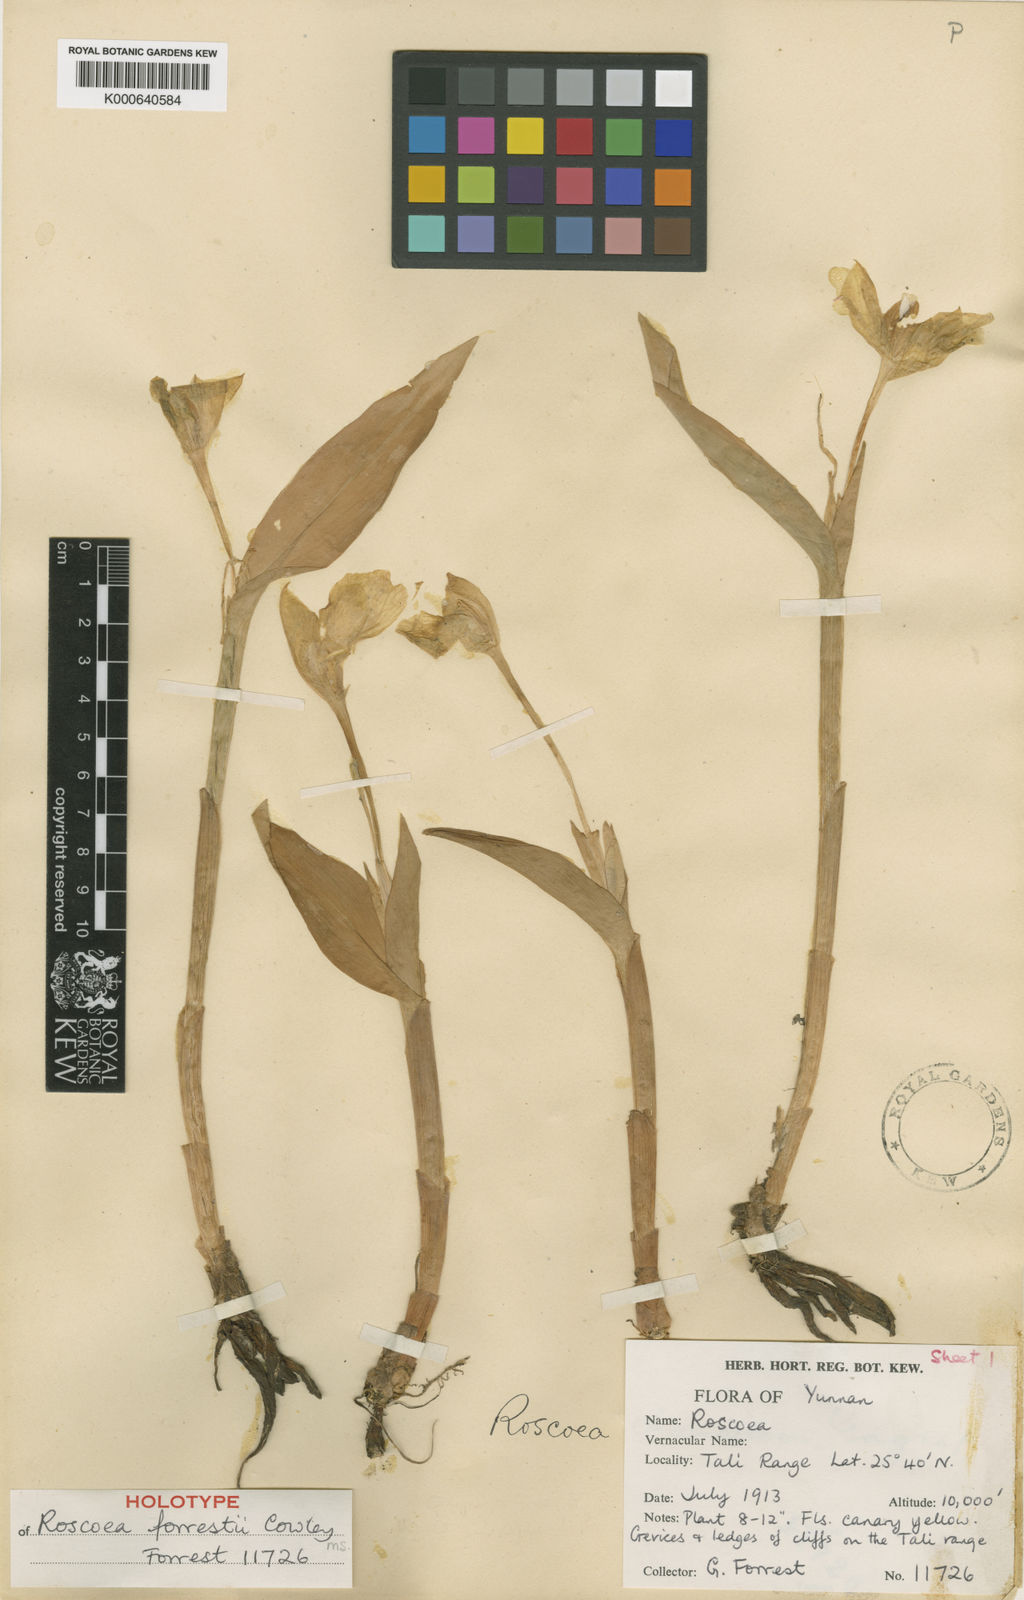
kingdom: Plantae
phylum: Tracheophyta
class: Liliopsida
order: Zingiberales
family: Zingiberaceae
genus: Roscoea
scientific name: Roscoea forrestii
